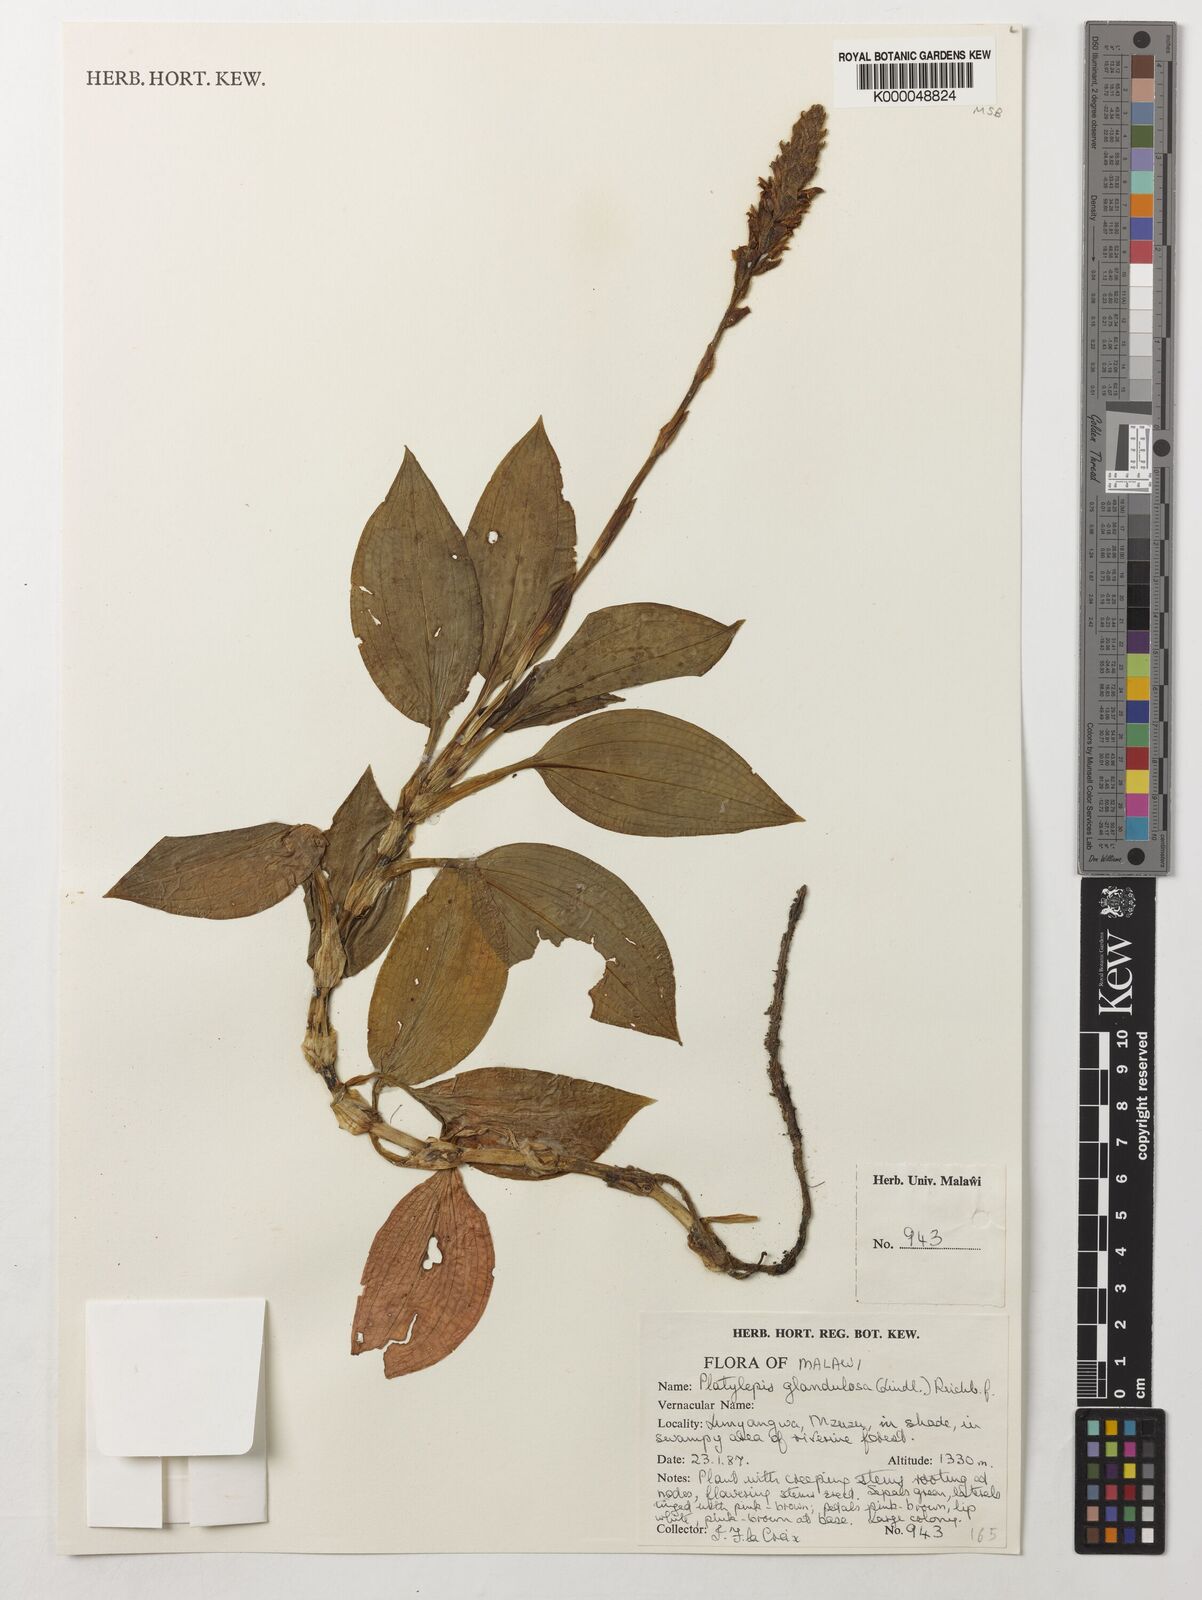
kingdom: Plantae
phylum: Tracheophyta
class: Liliopsida
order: Asparagales
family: Orchidaceae
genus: Platylepis
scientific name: Platylepis glandulosa
